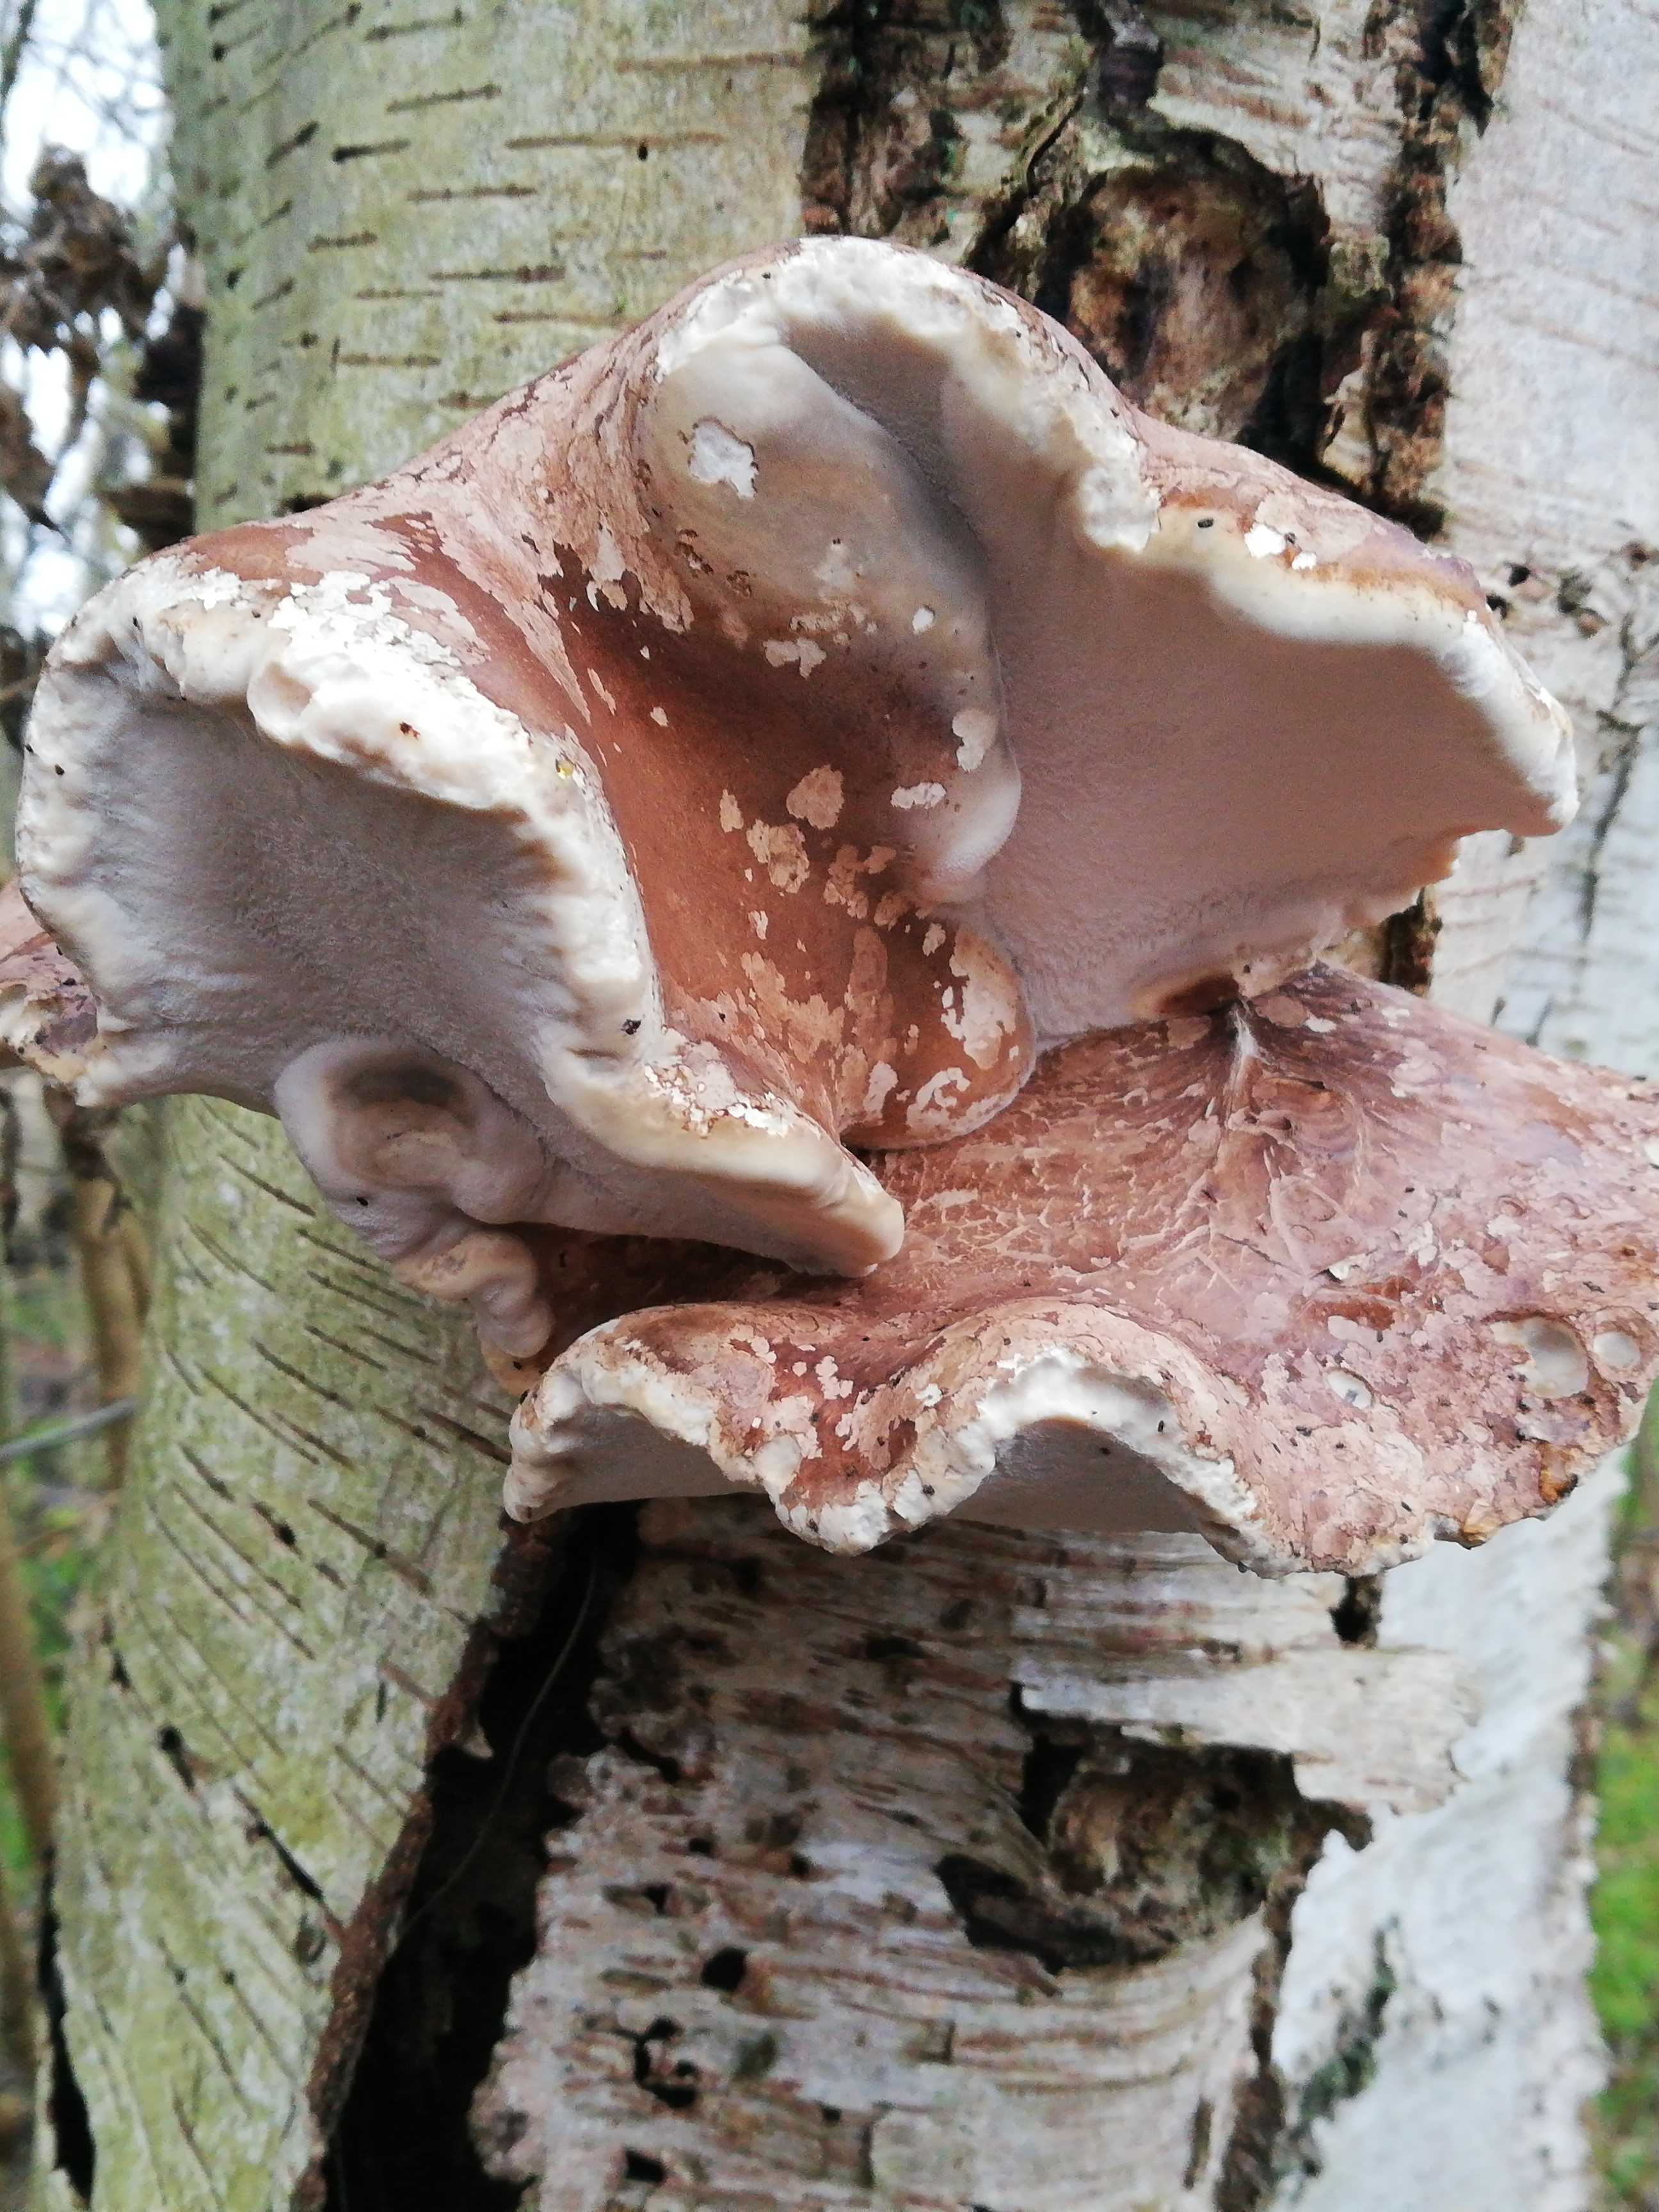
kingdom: Fungi
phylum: Basidiomycota
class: Agaricomycetes
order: Polyporales
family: Fomitopsidaceae
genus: Fomitopsis
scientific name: Fomitopsis betulina
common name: birkeporesvamp
